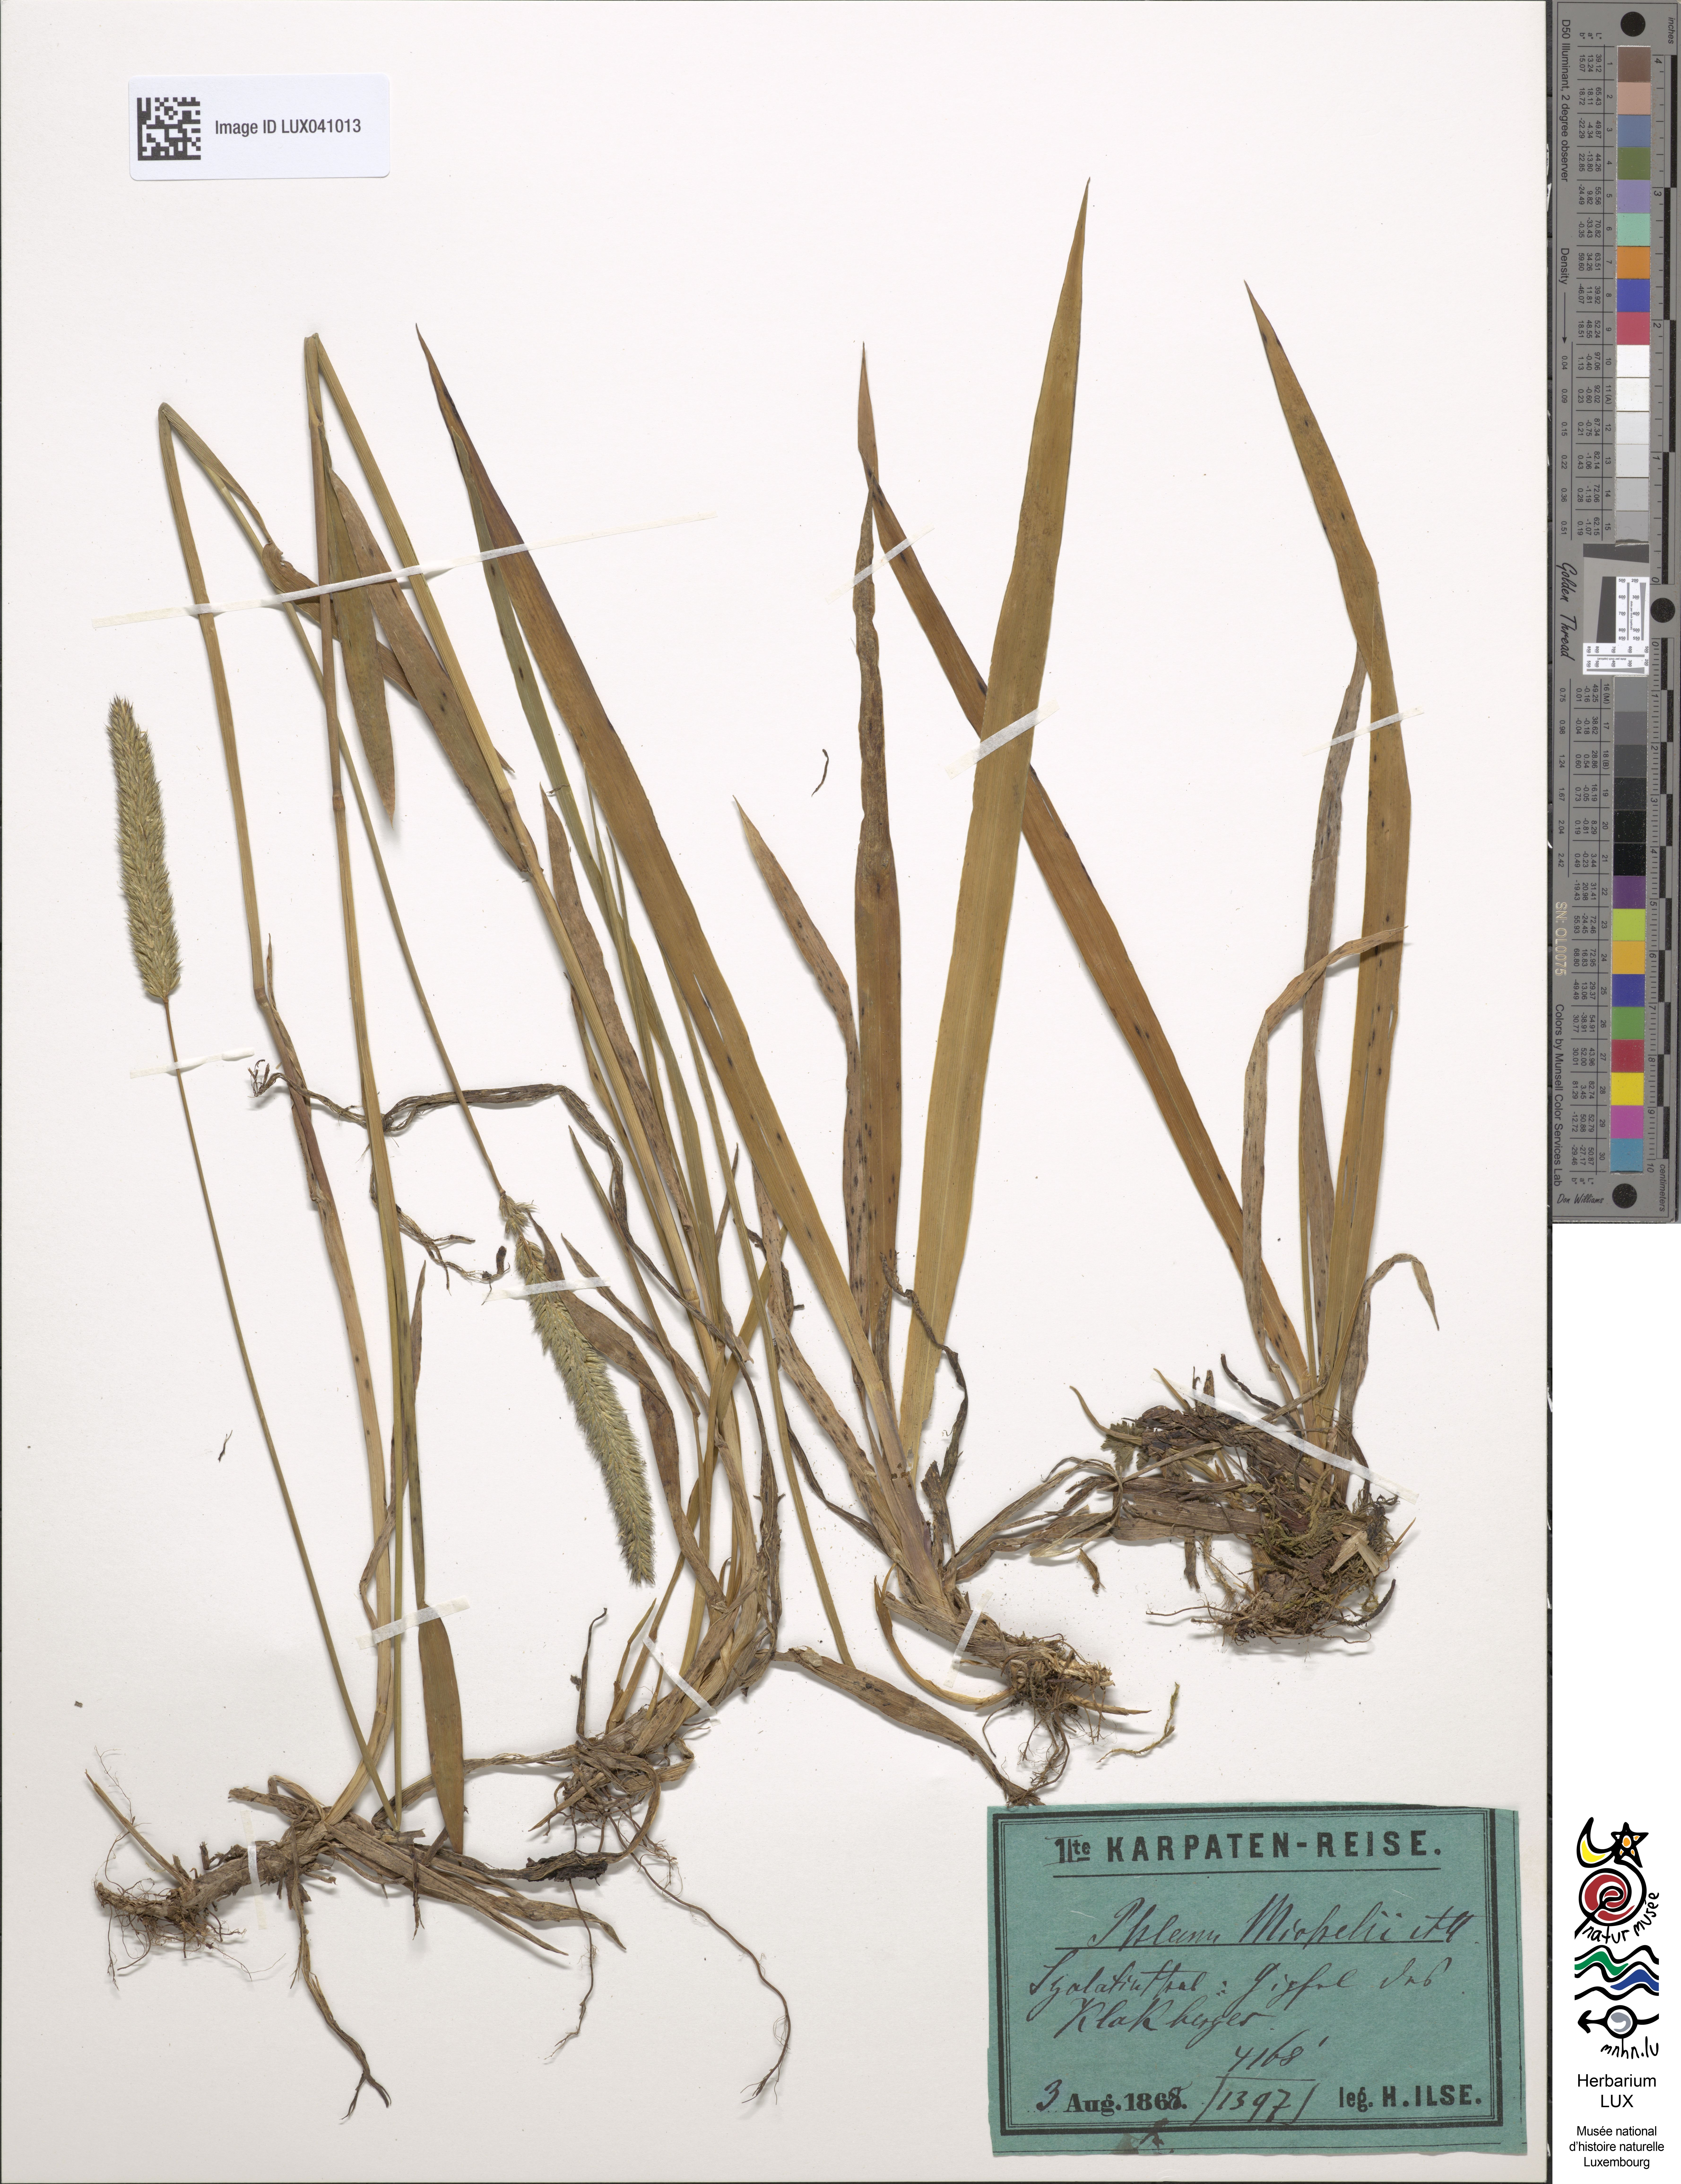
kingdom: Plantae
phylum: Tracheophyta
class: Liliopsida
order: Poales
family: Poaceae
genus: Phleum
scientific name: Phleum hirsutum
